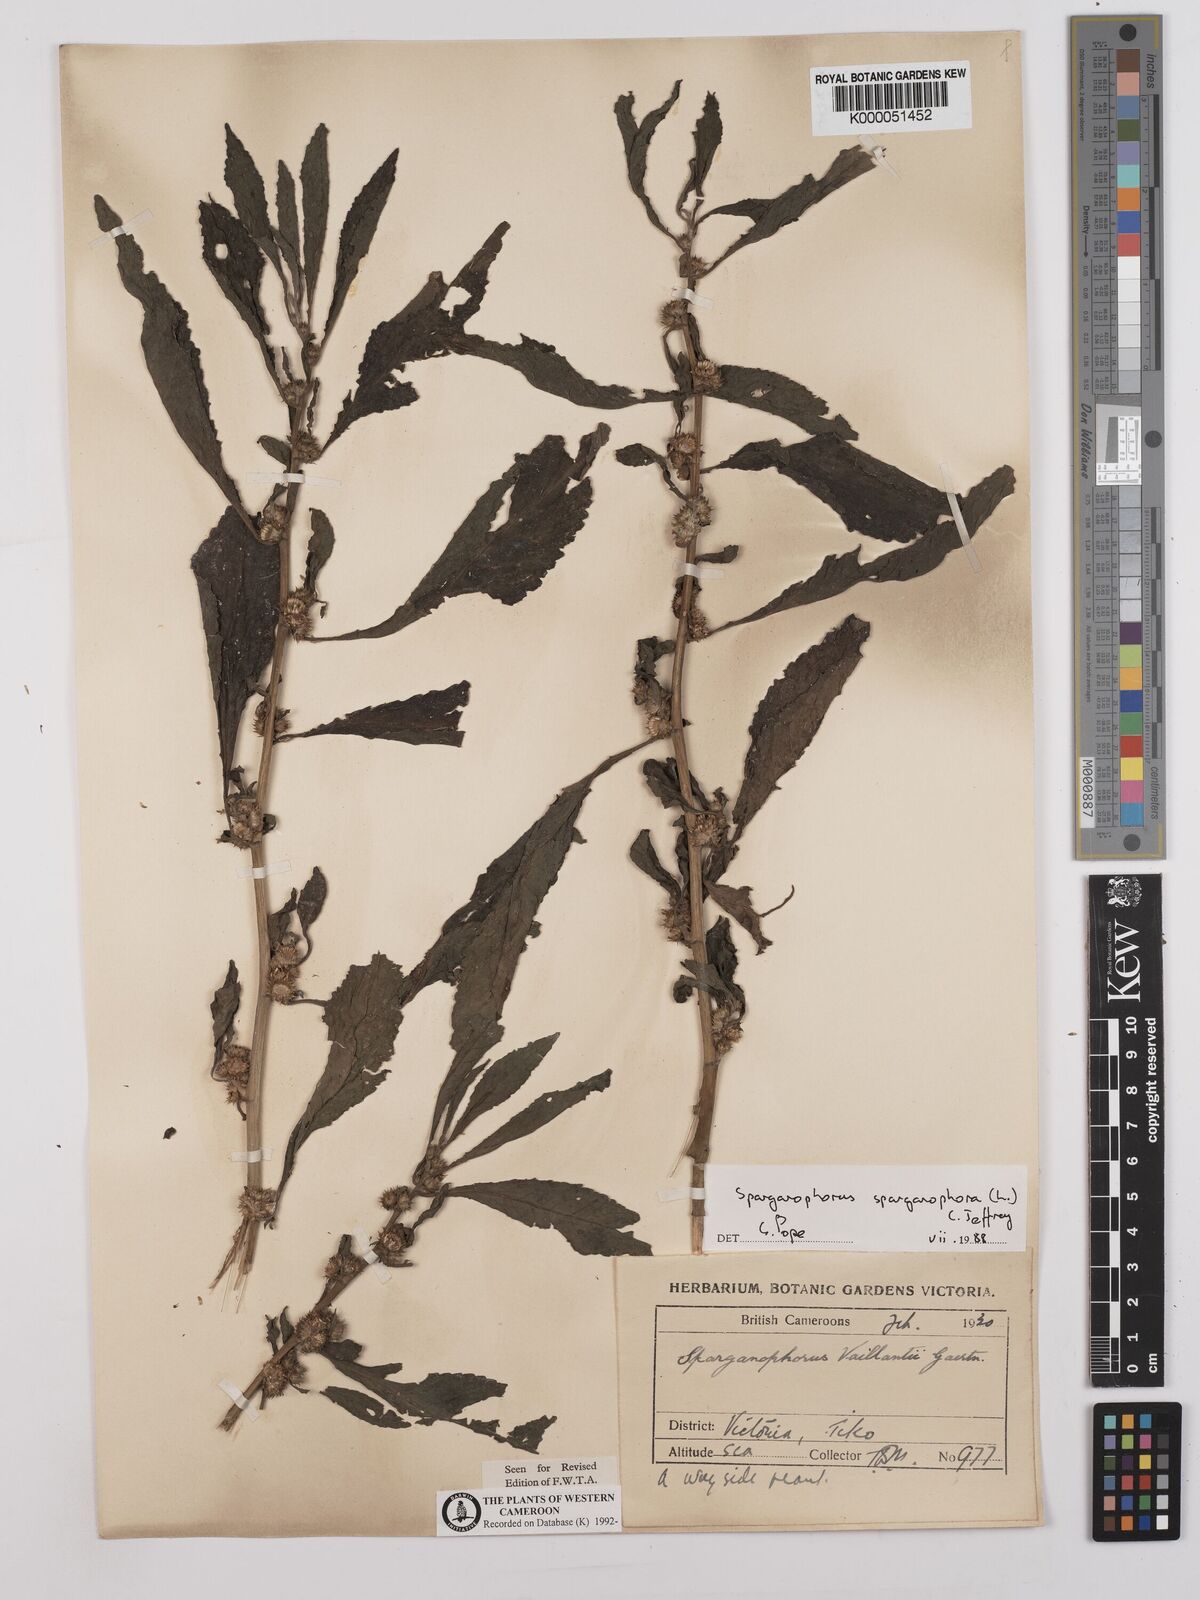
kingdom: Plantae
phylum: Tracheophyta
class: Magnoliopsida
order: Asterales
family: Asteraceae
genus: Struchium
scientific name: Struchium sparganophorum
